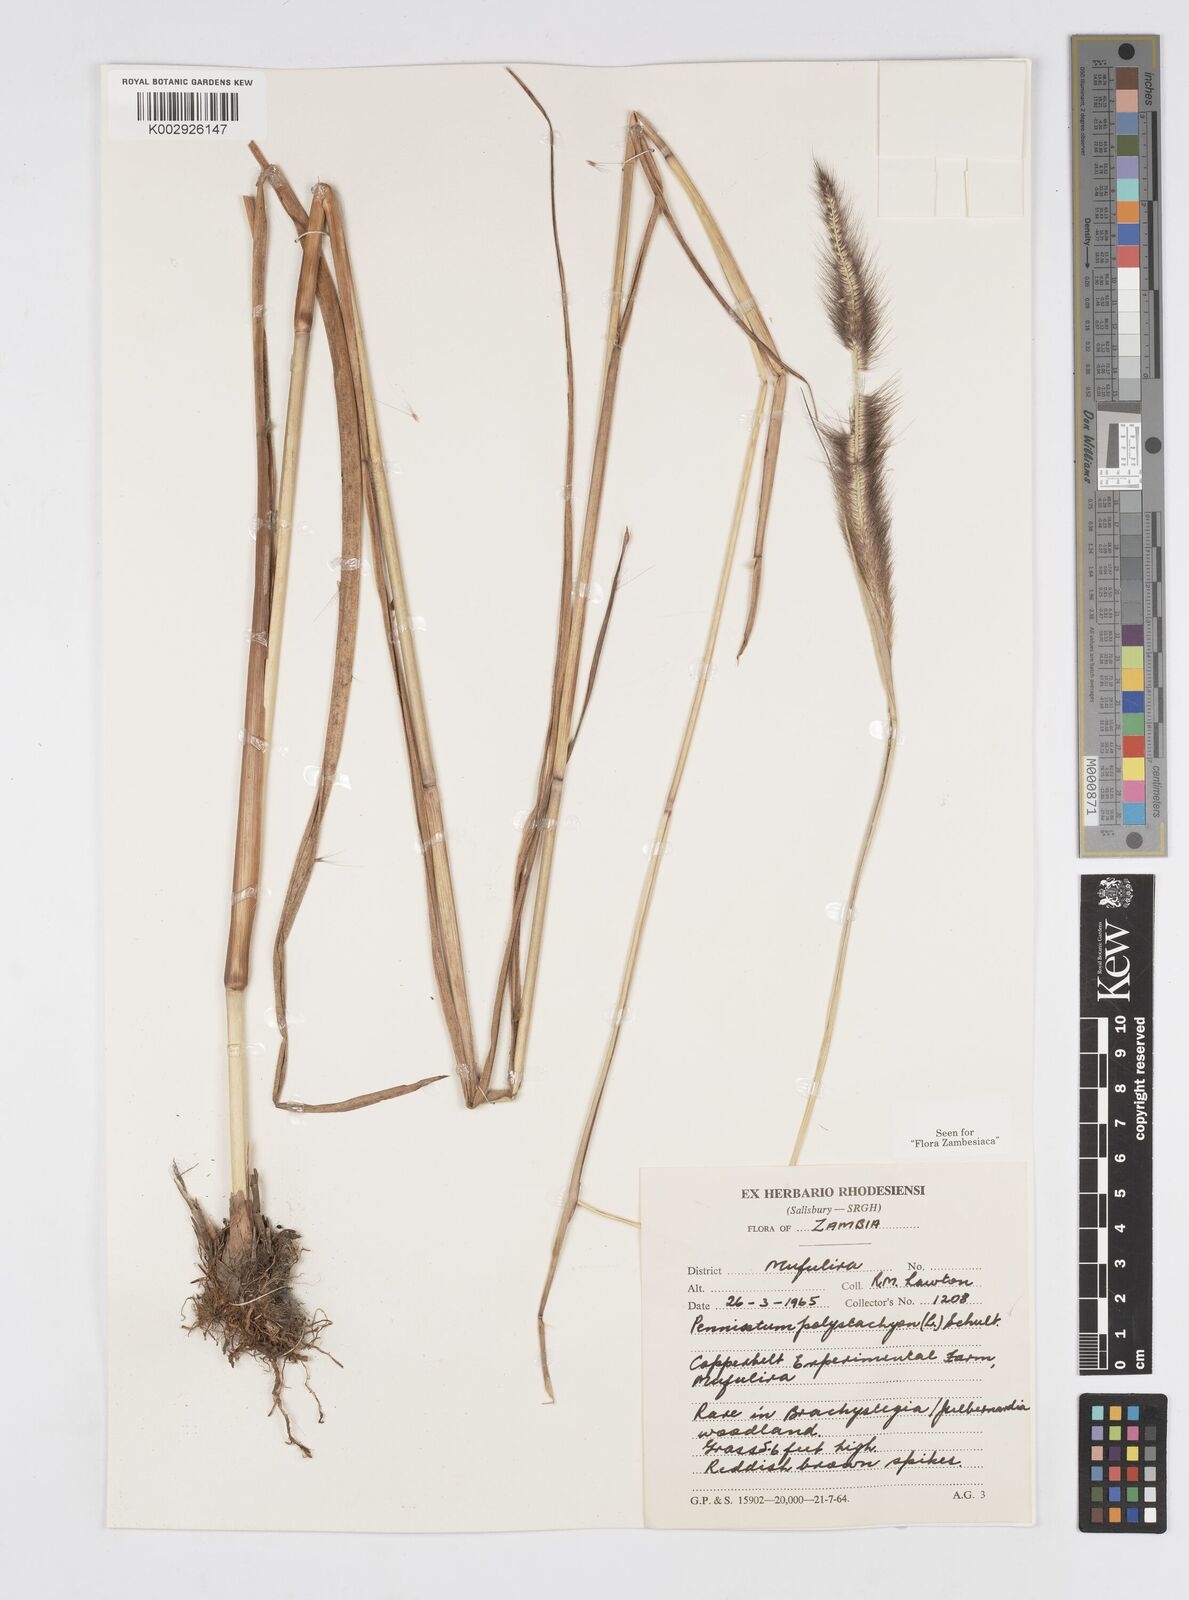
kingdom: Plantae
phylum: Tracheophyta
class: Liliopsida
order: Poales
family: Poaceae
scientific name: Poaceae
